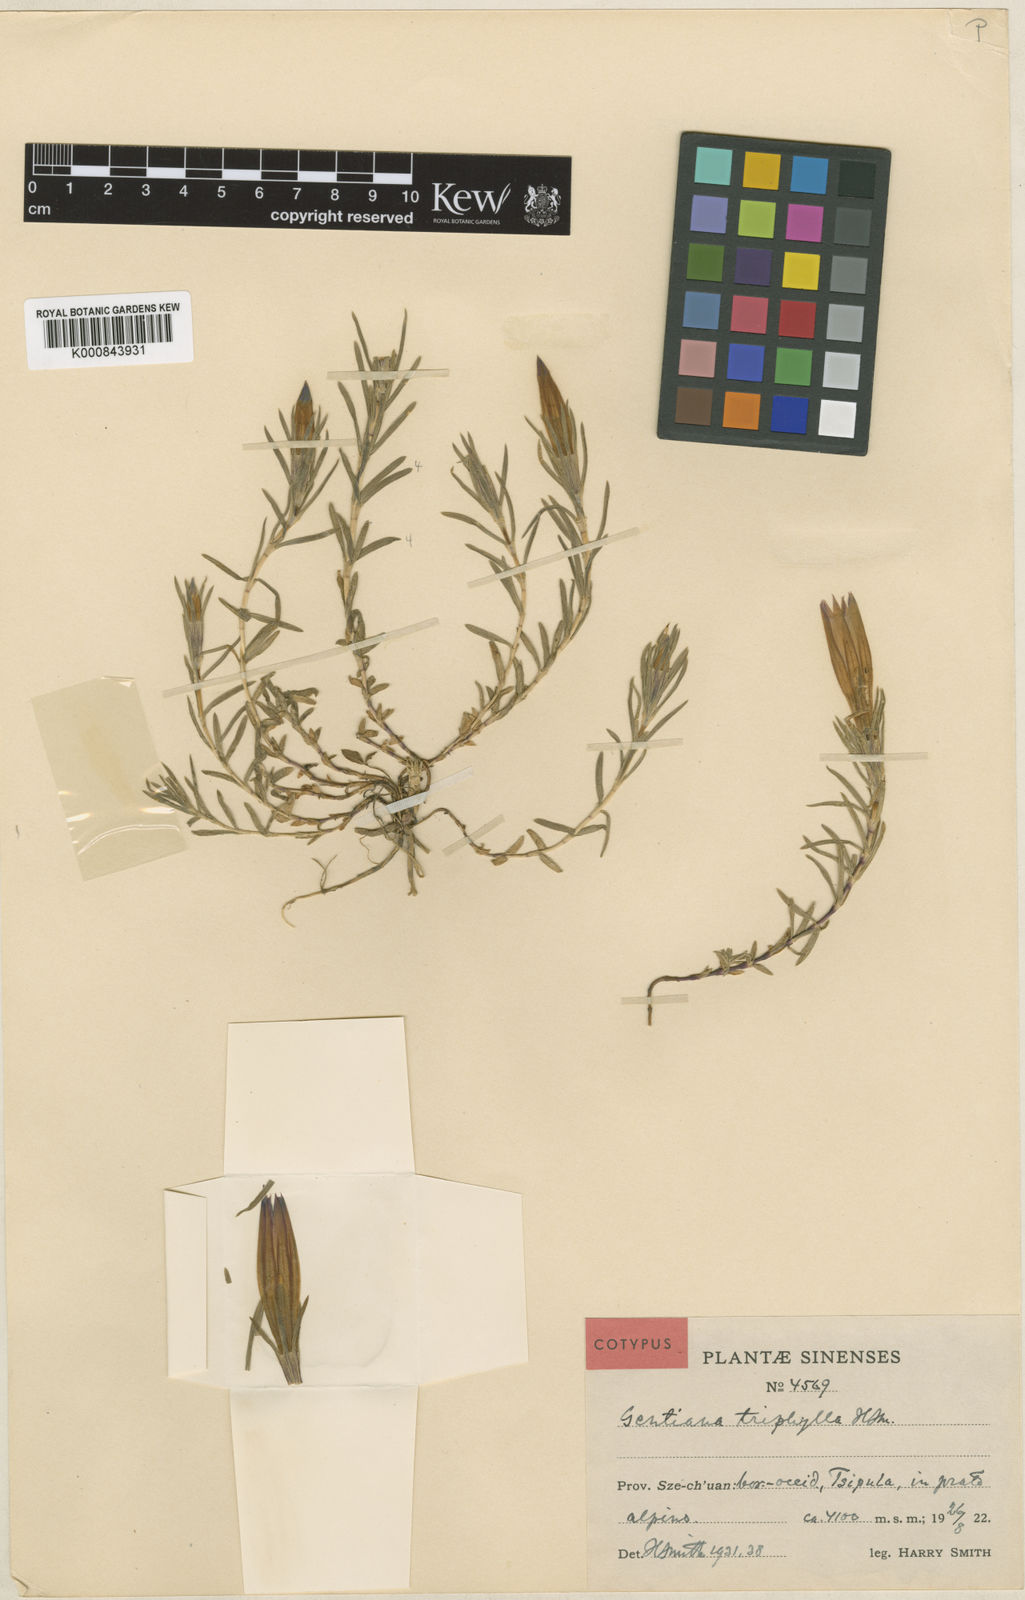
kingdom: Plantae
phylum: Tracheophyta
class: Magnoliopsida
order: Gentianales
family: Gentianaceae
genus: Gentiana
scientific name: Gentiana
